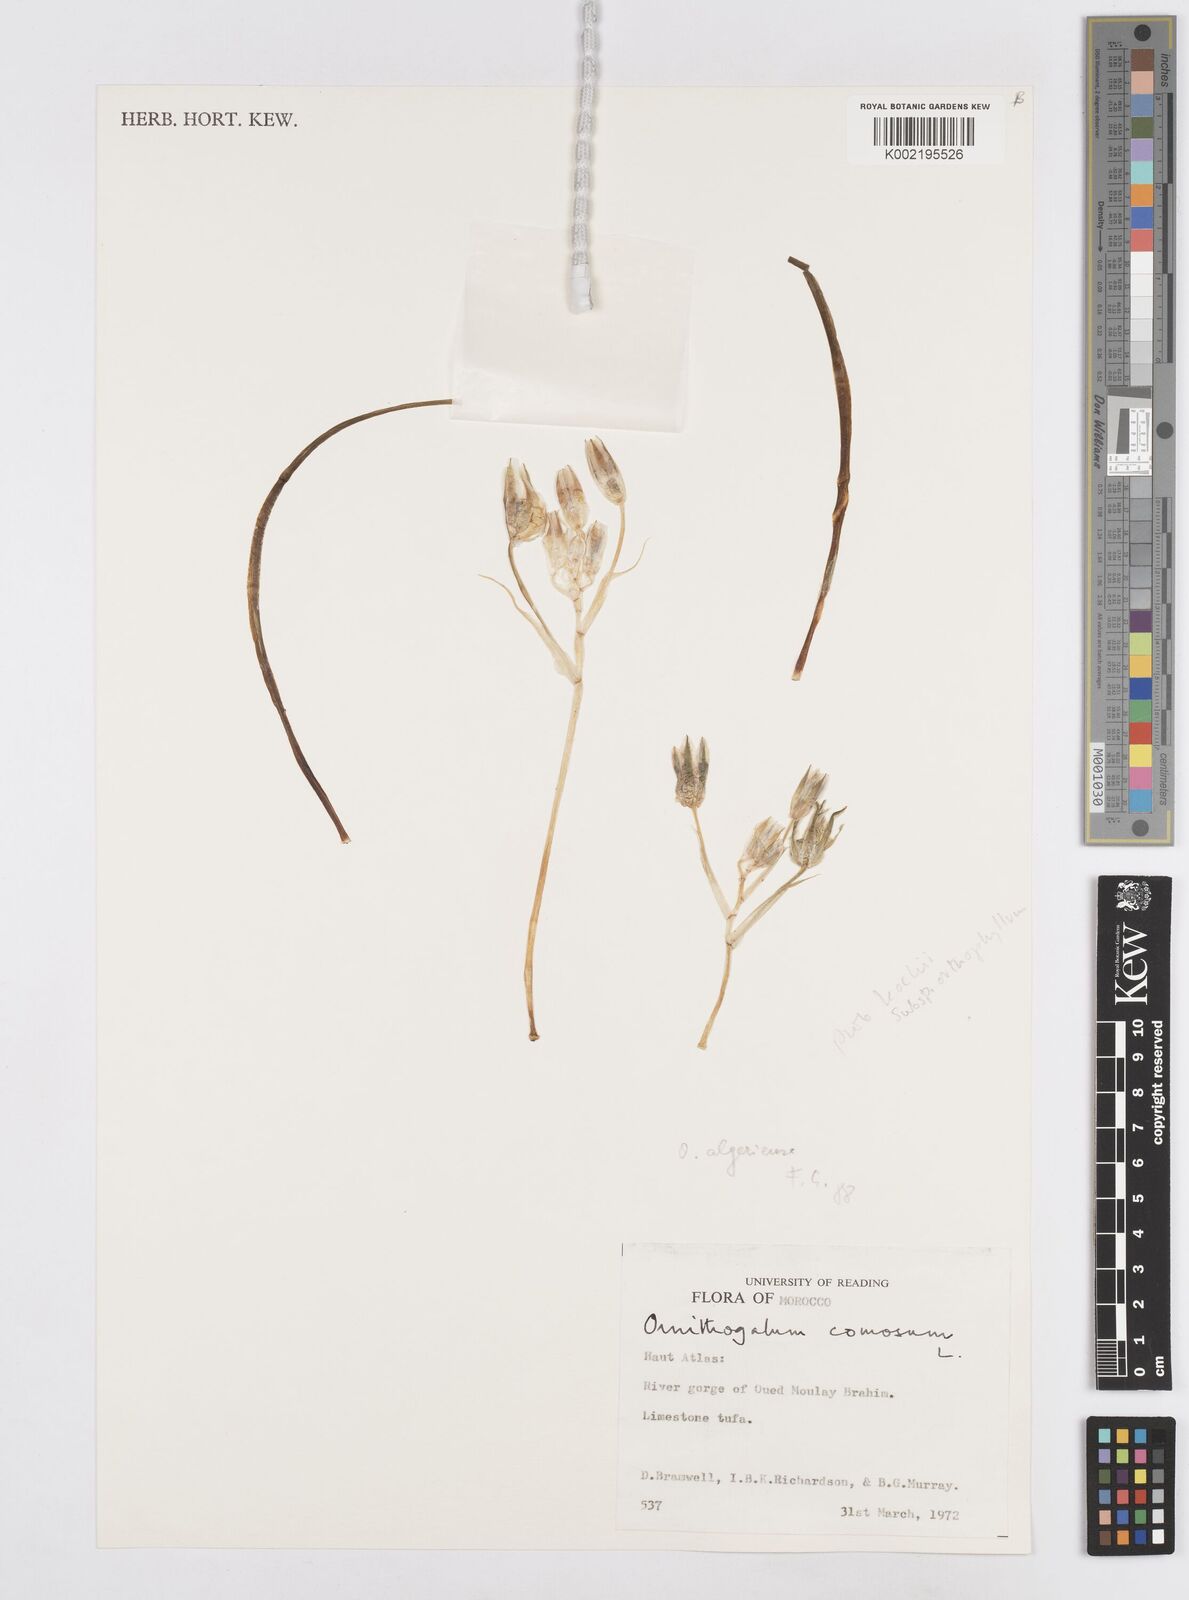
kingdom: Plantae
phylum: Tracheophyta
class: Liliopsida
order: Asparagales
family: Asparagaceae
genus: Ornithogalum
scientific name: Ornithogalum baeticum
